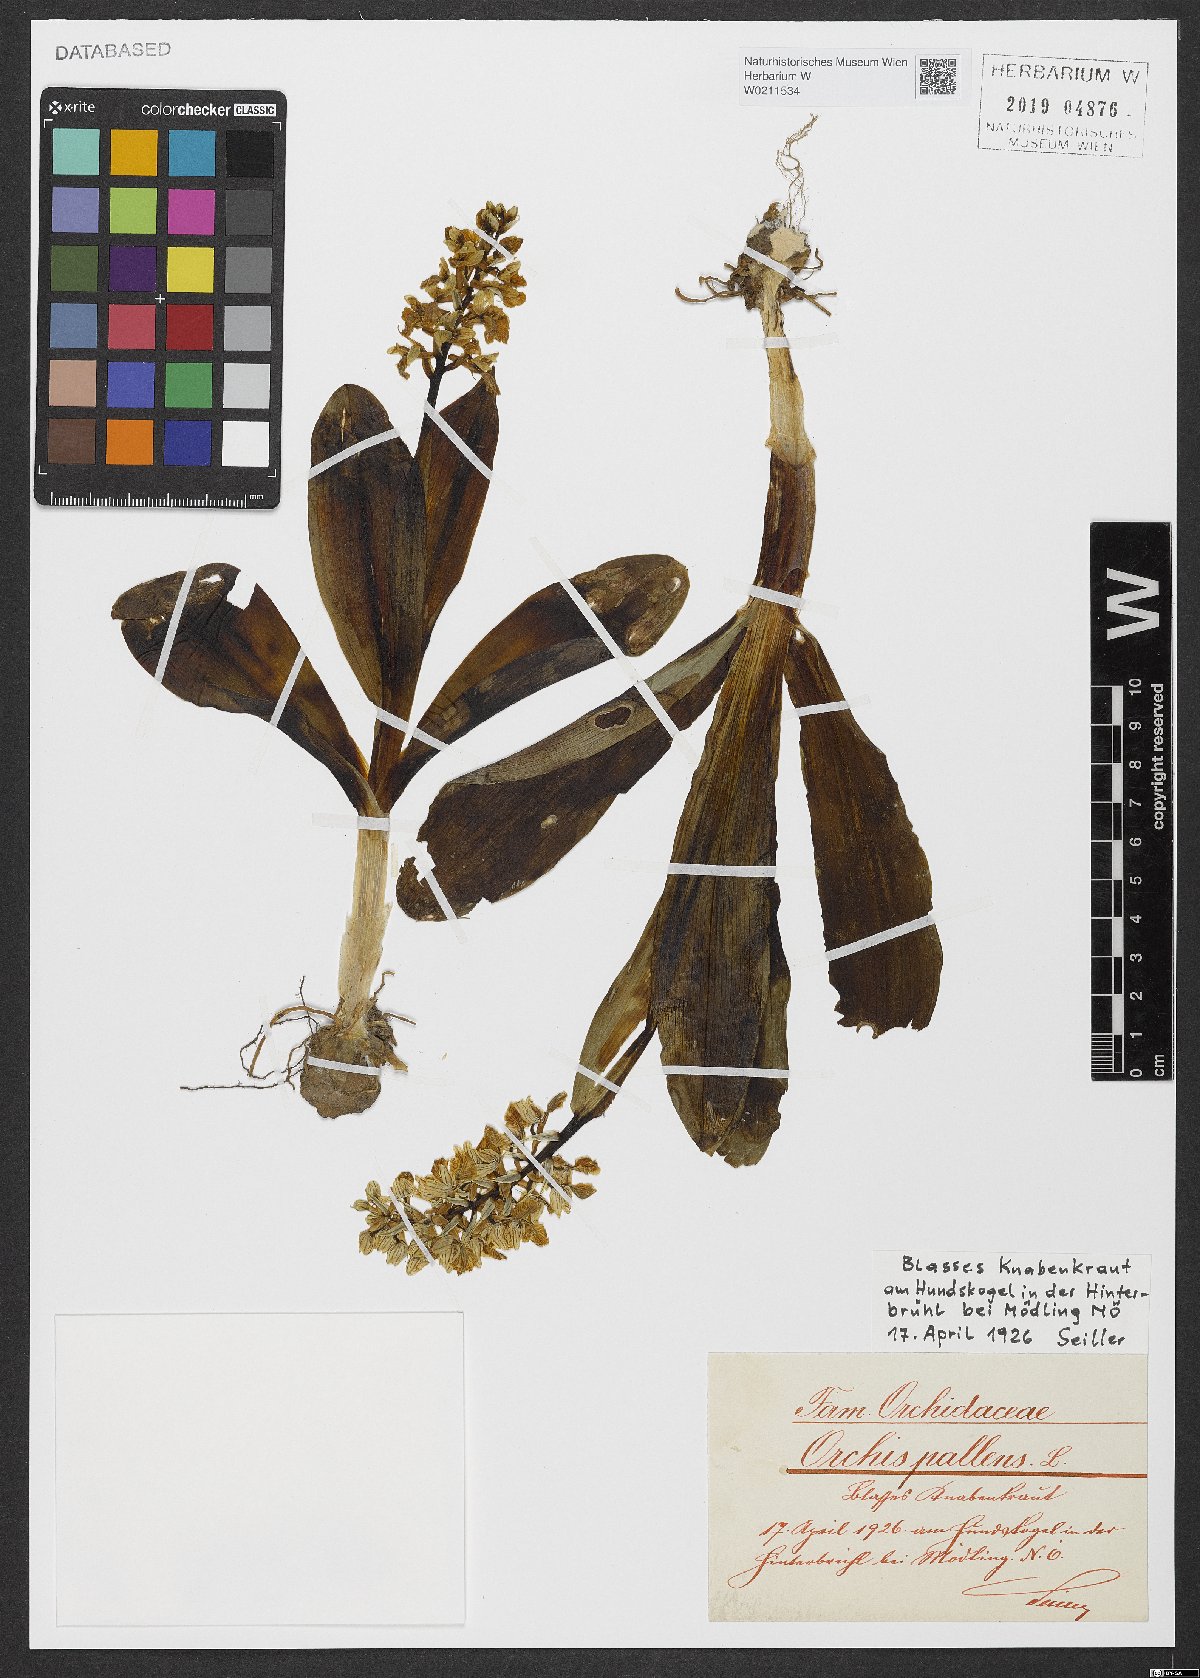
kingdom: Plantae
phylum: Tracheophyta
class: Liliopsida
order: Asparagales
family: Orchidaceae
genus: Orchis
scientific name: Orchis pallens
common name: Pale-flowered orchid
